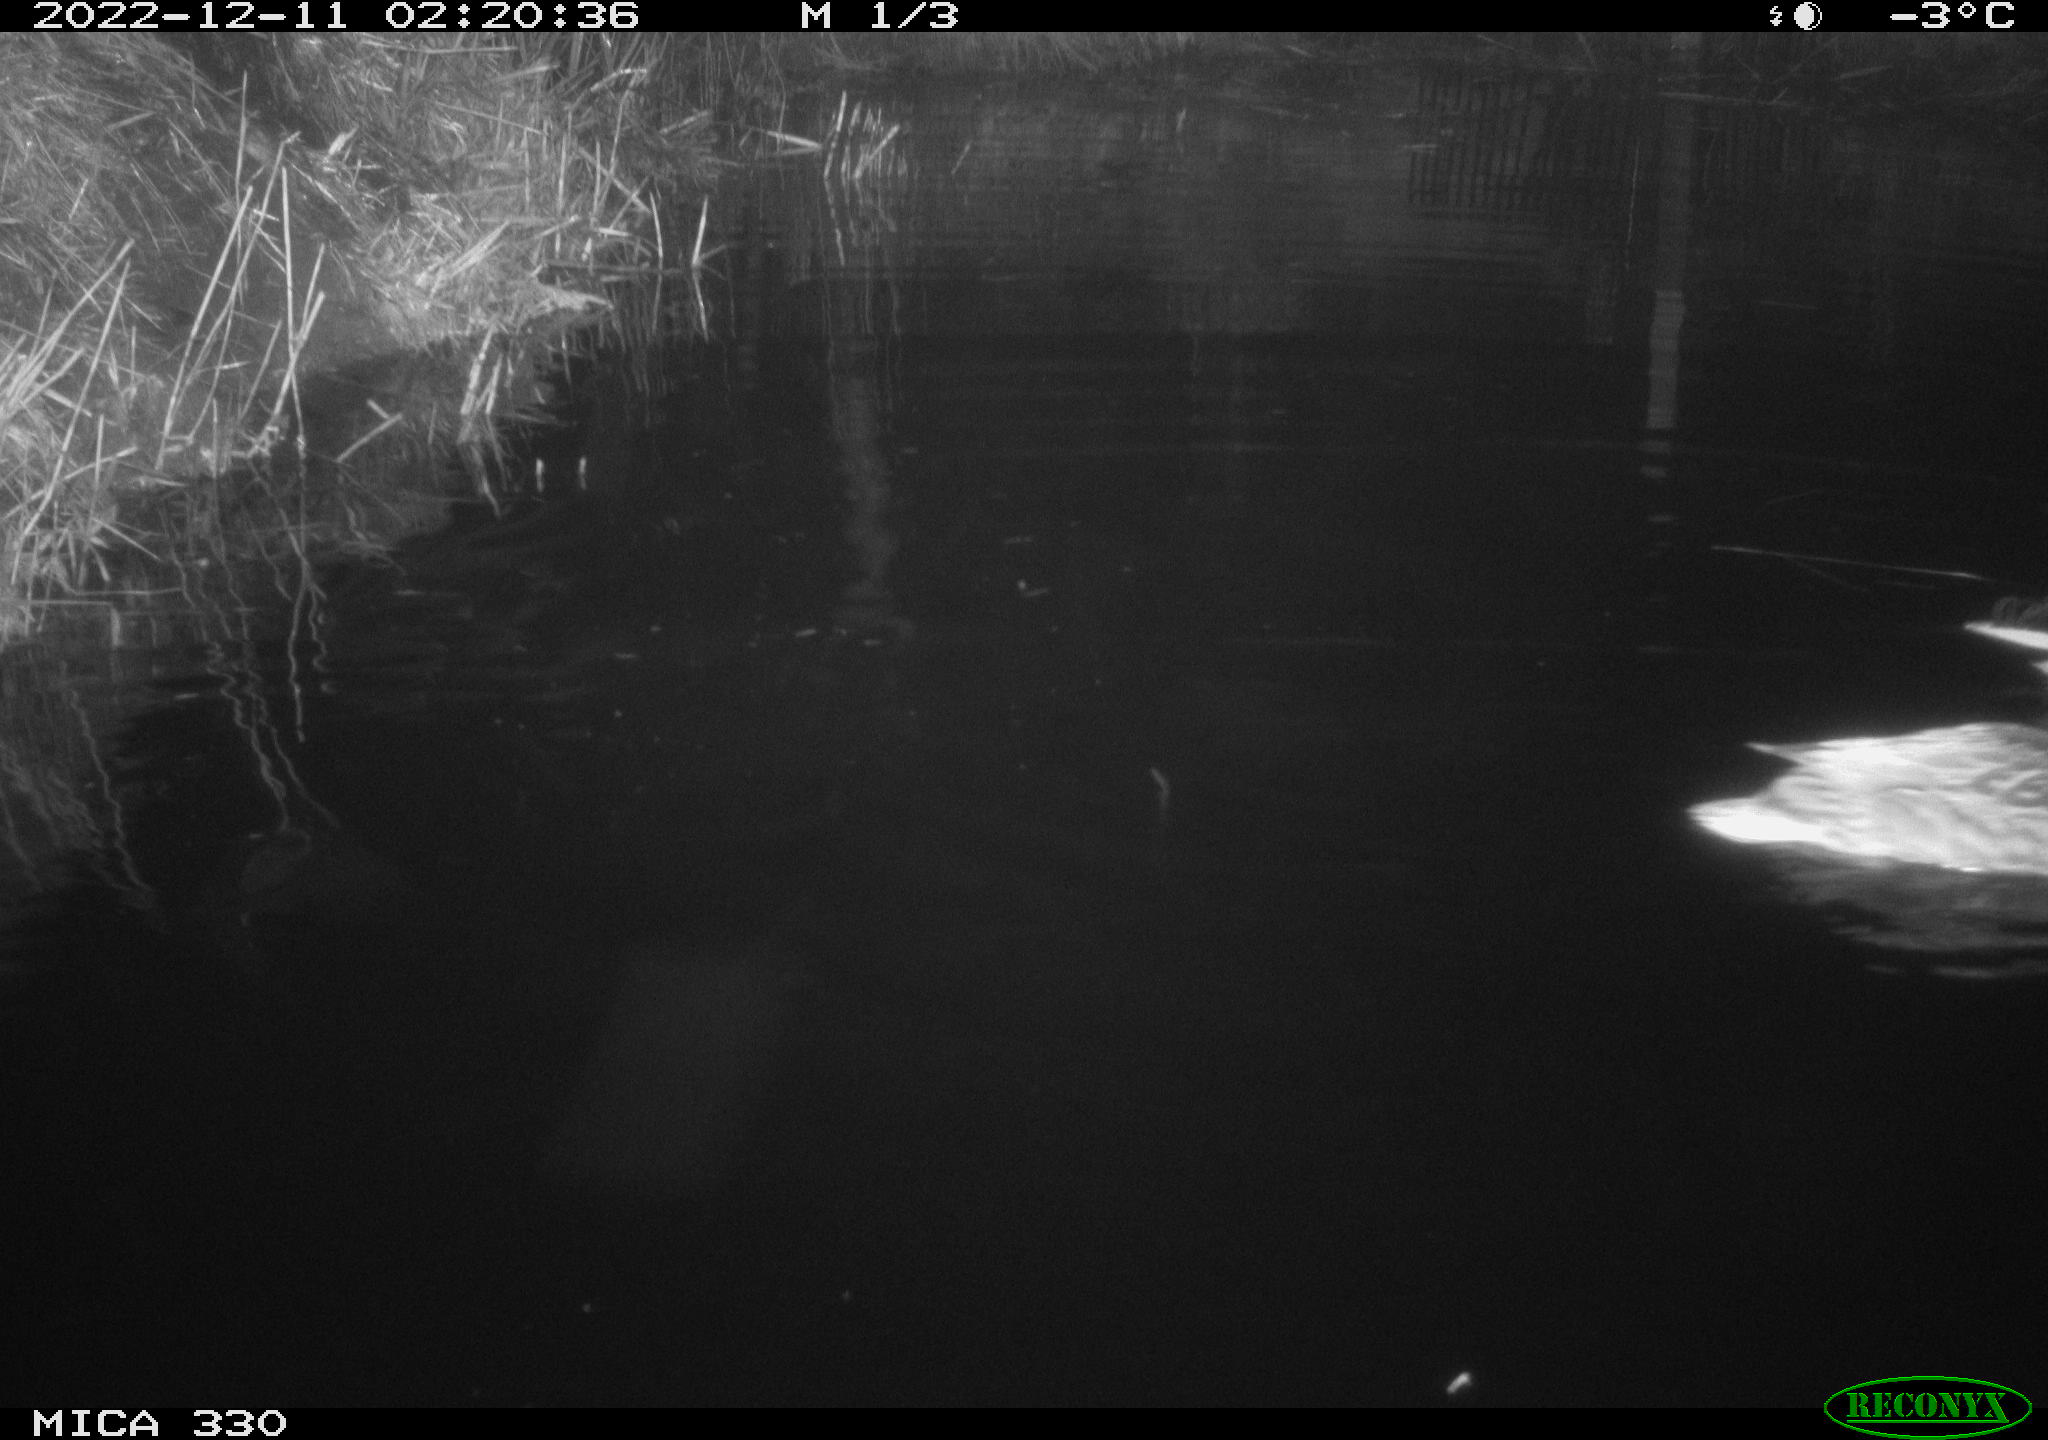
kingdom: Animalia
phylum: Chordata
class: Aves
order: Anseriformes
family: Anatidae
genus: Anas
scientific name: Anas
